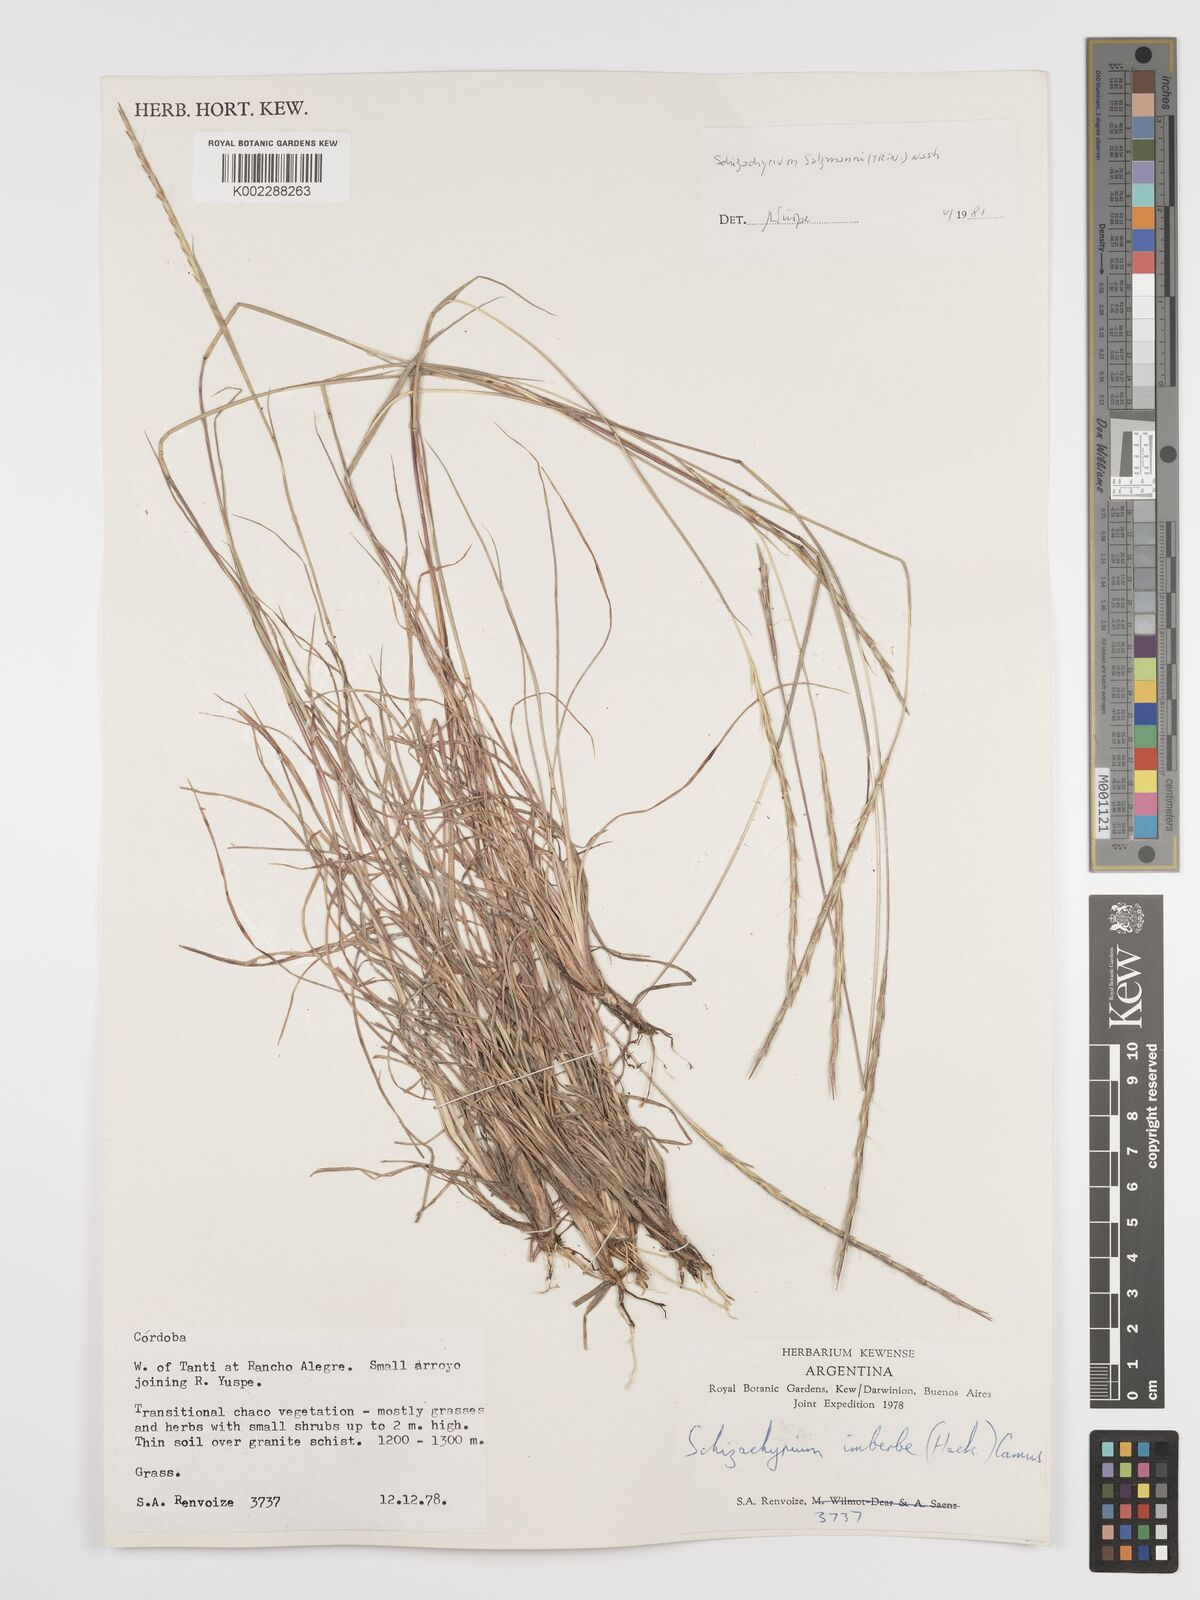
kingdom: Plantae
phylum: Tracheophyta
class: Liliopsida
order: Poales
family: Poaceae
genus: Andropogon
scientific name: Andropogon salzmannii
